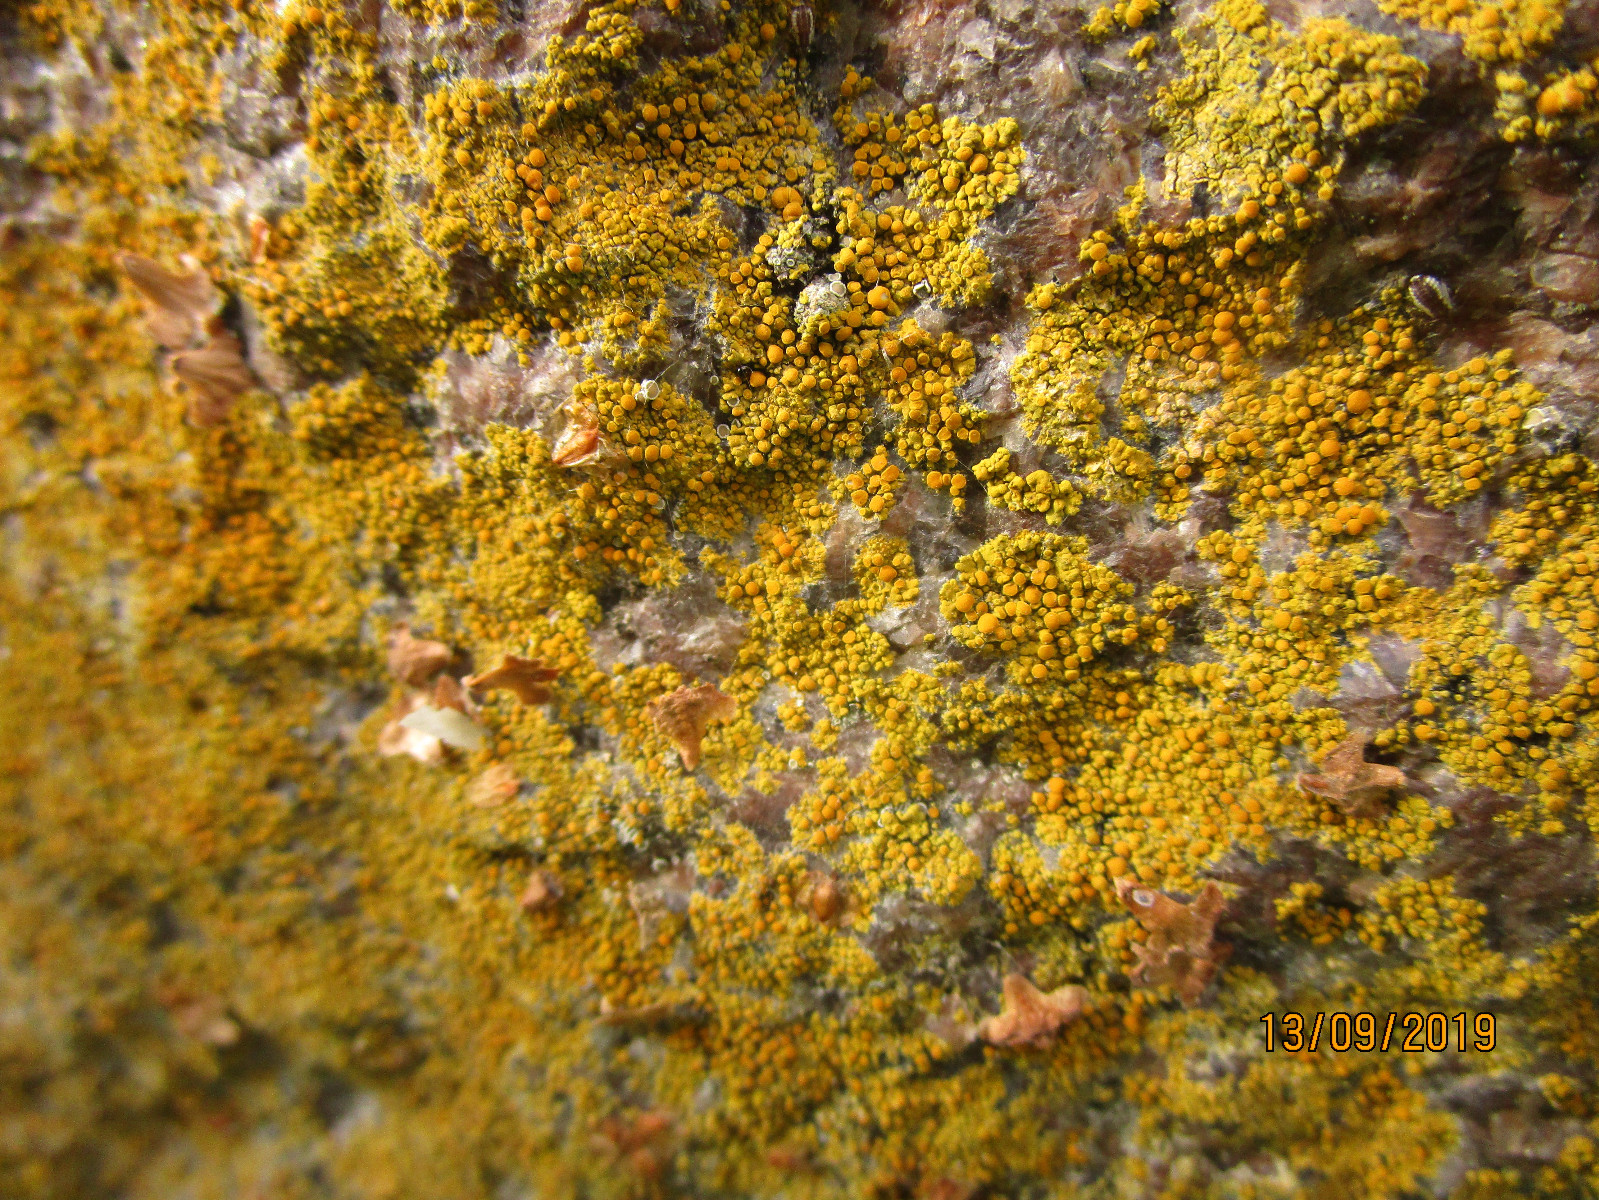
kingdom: Fungi
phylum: Ascomycota
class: Lecanoromycetes
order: Teloschistales
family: Teloschistaceae
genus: Calogaya
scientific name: Calogaya arnoldii
